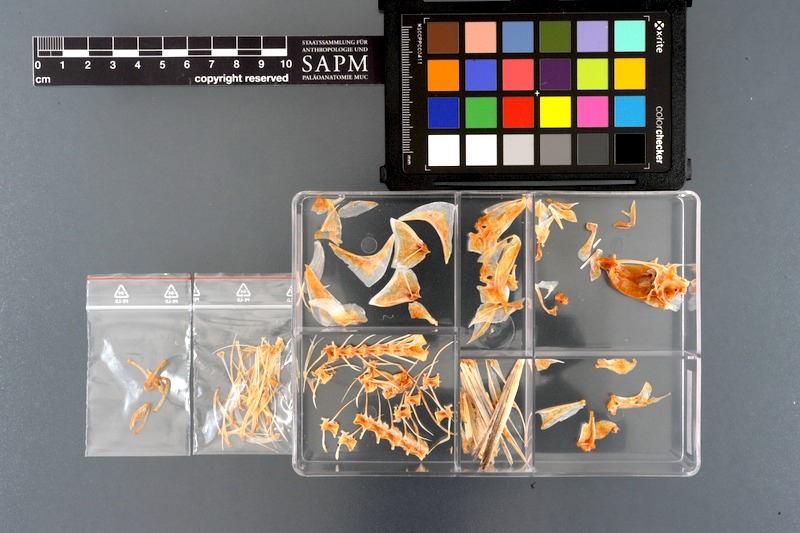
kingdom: Animalia
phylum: Chordata
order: Perciformes
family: Caesionidae
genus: Caesio
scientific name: Caesio
